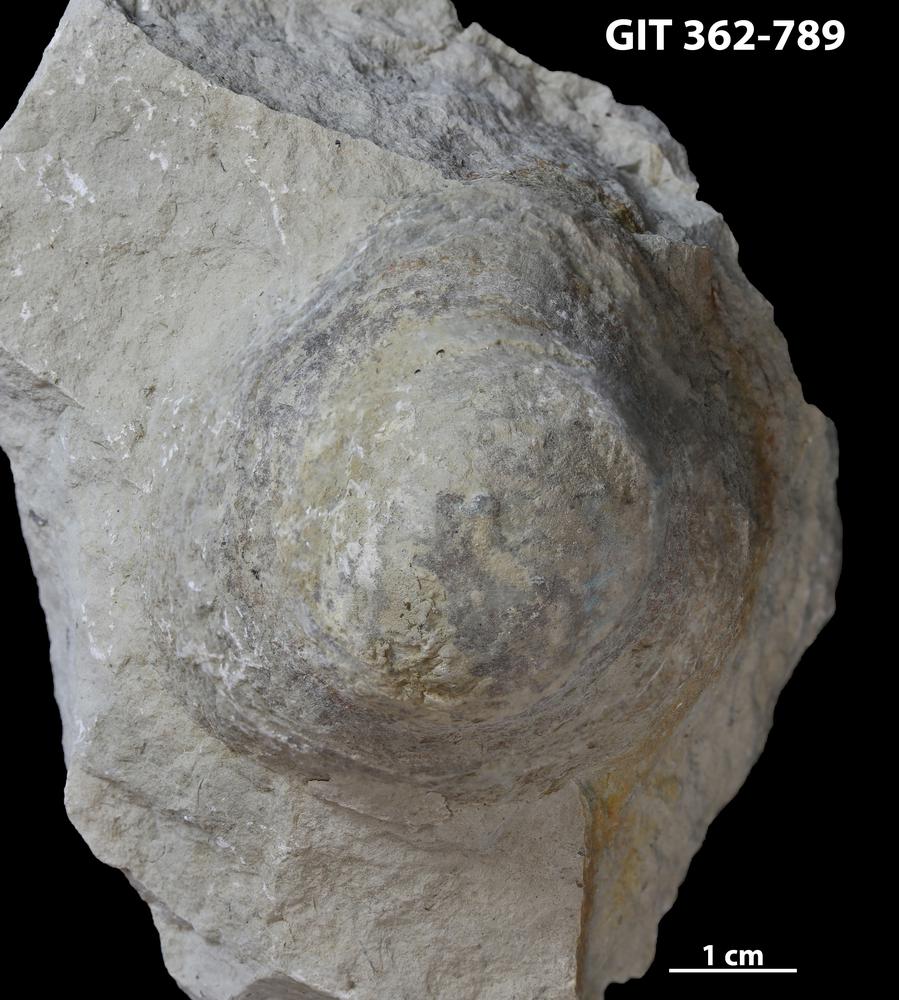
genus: Conichnus
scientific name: Conichnus
